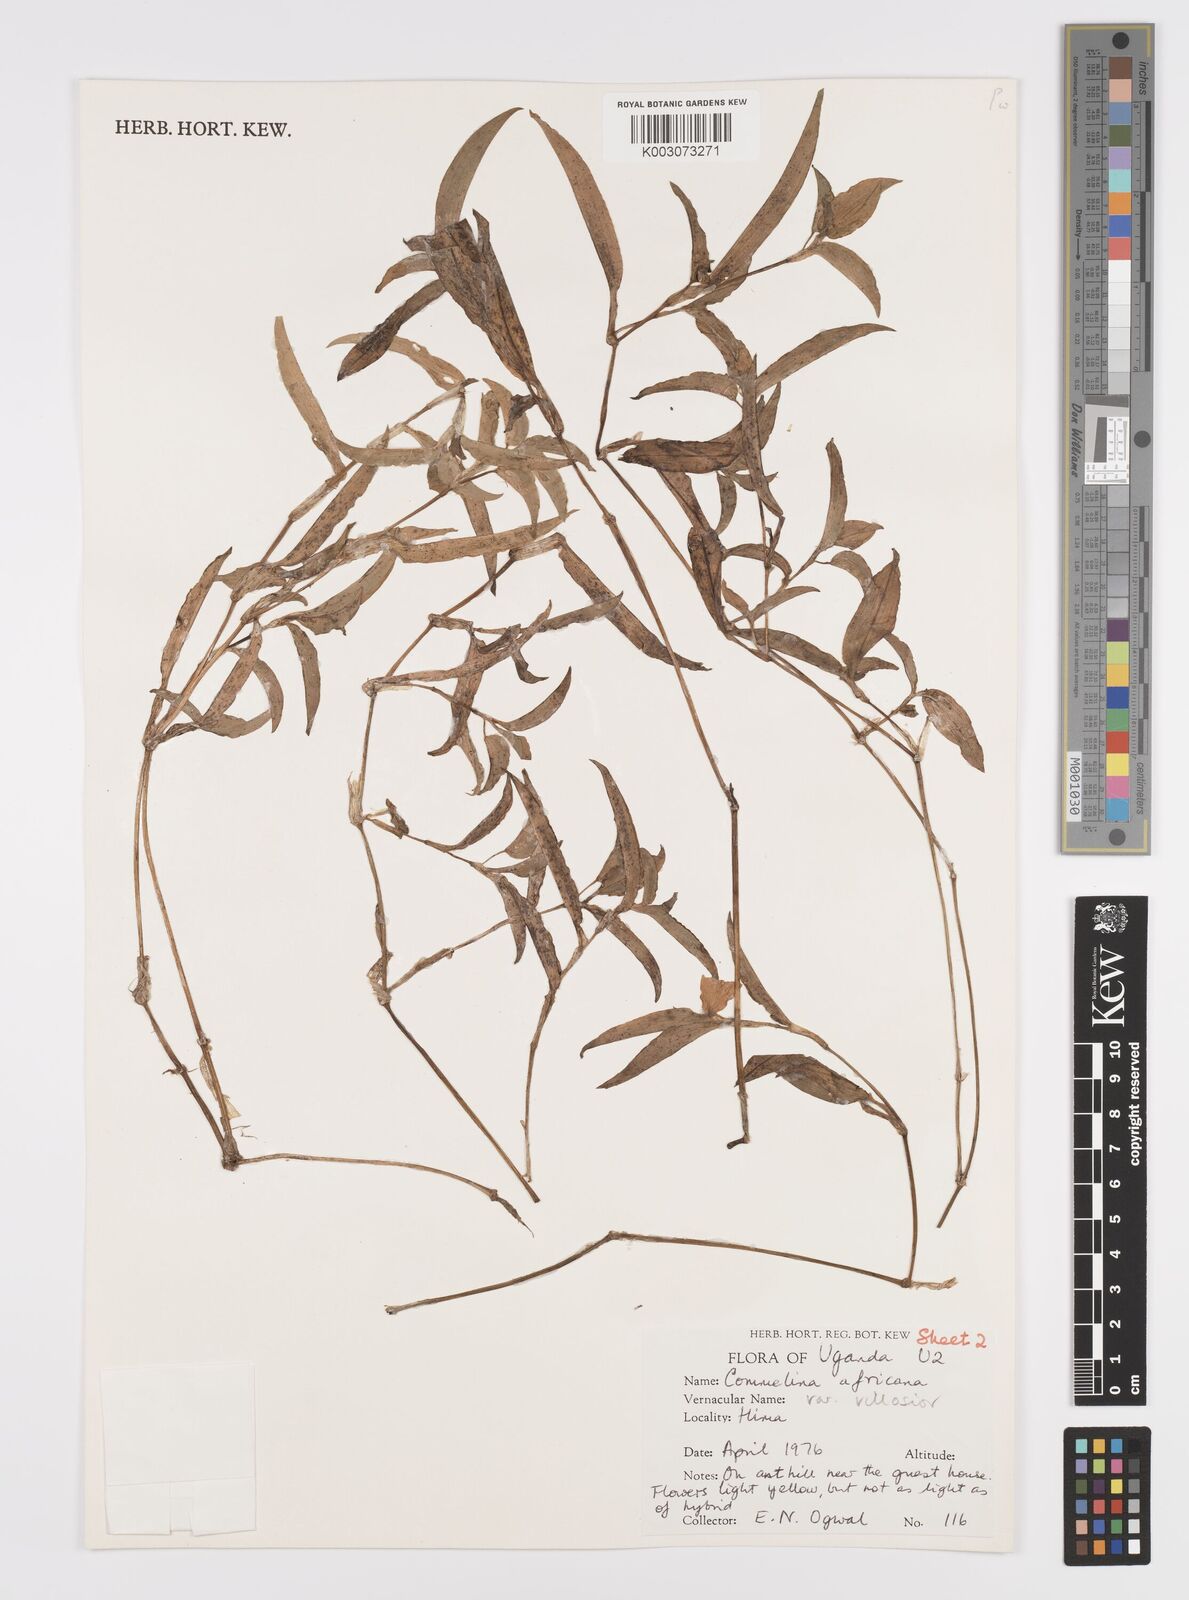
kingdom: Plantae
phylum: Tracheophyta
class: Liliopsida
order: Commelinales
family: Commelinaceae
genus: Commelina
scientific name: Commelina africana
